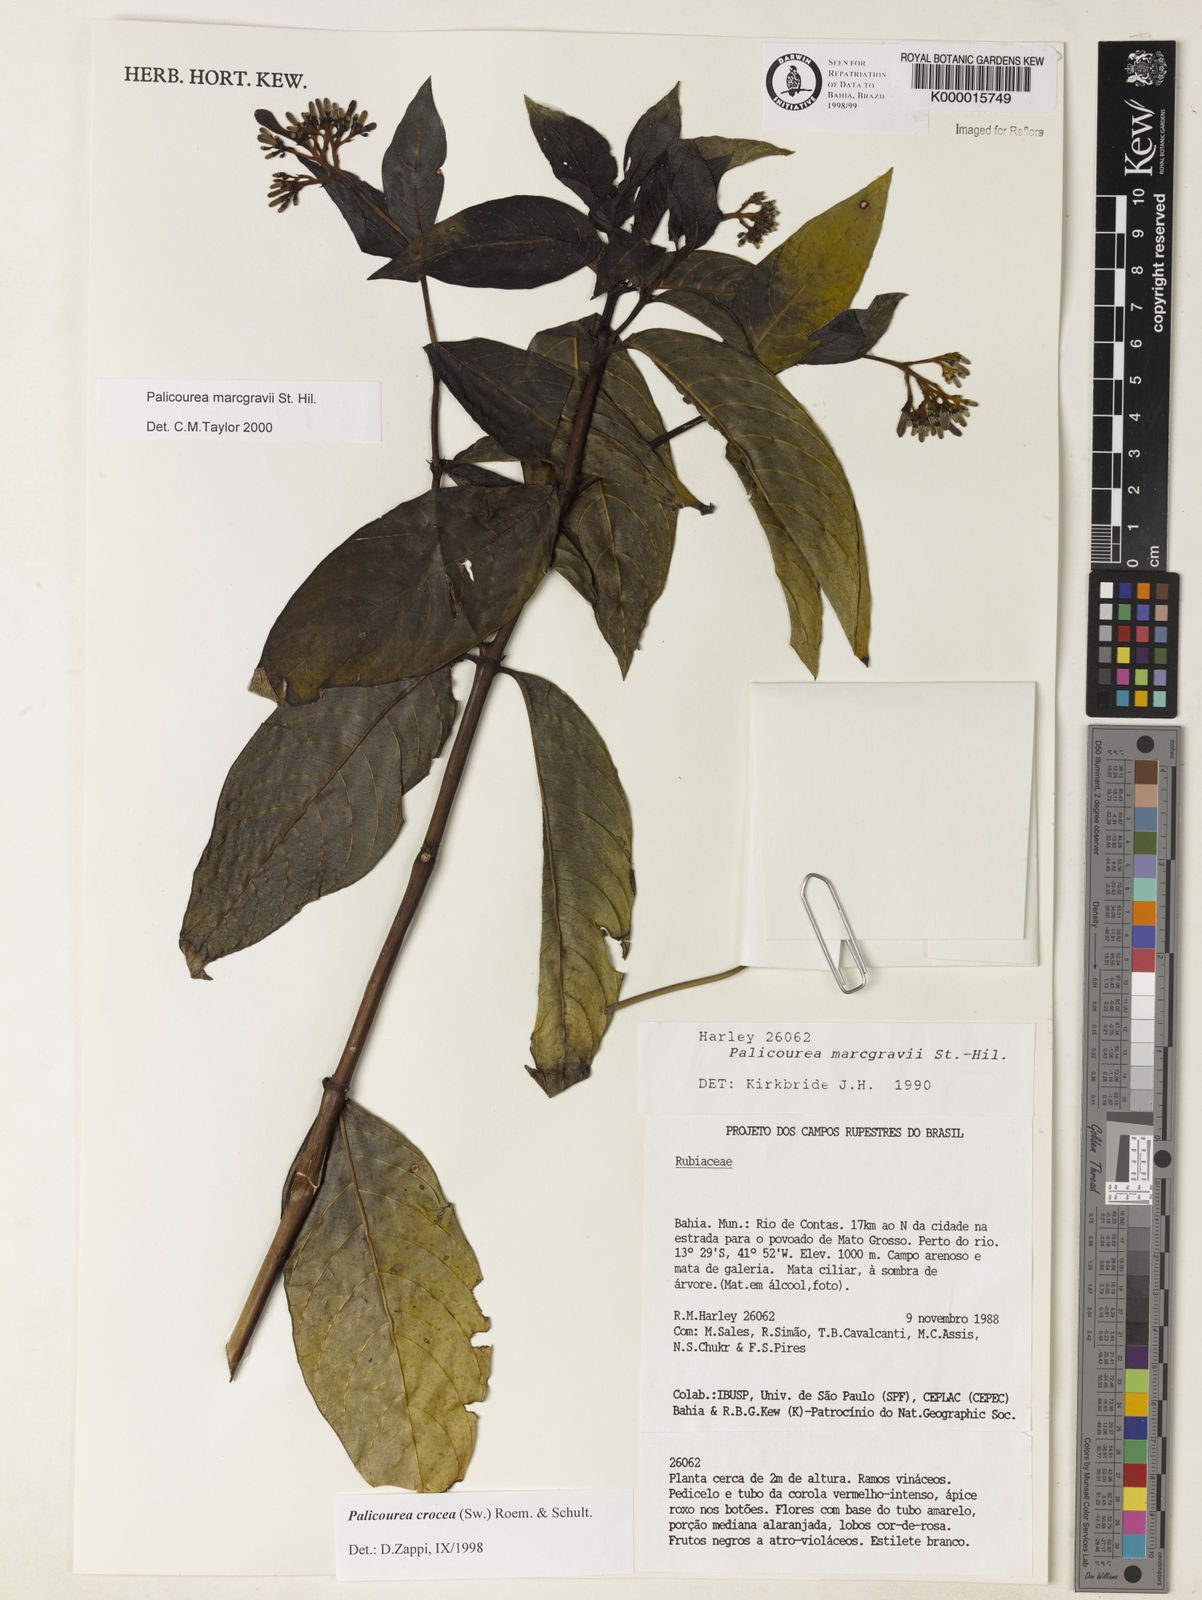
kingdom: Plantae
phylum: Tracheophyta
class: Magnoliopsida
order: Gentianales
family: Rubiaceae
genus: Palicourea
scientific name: Palicourea marcgravii
